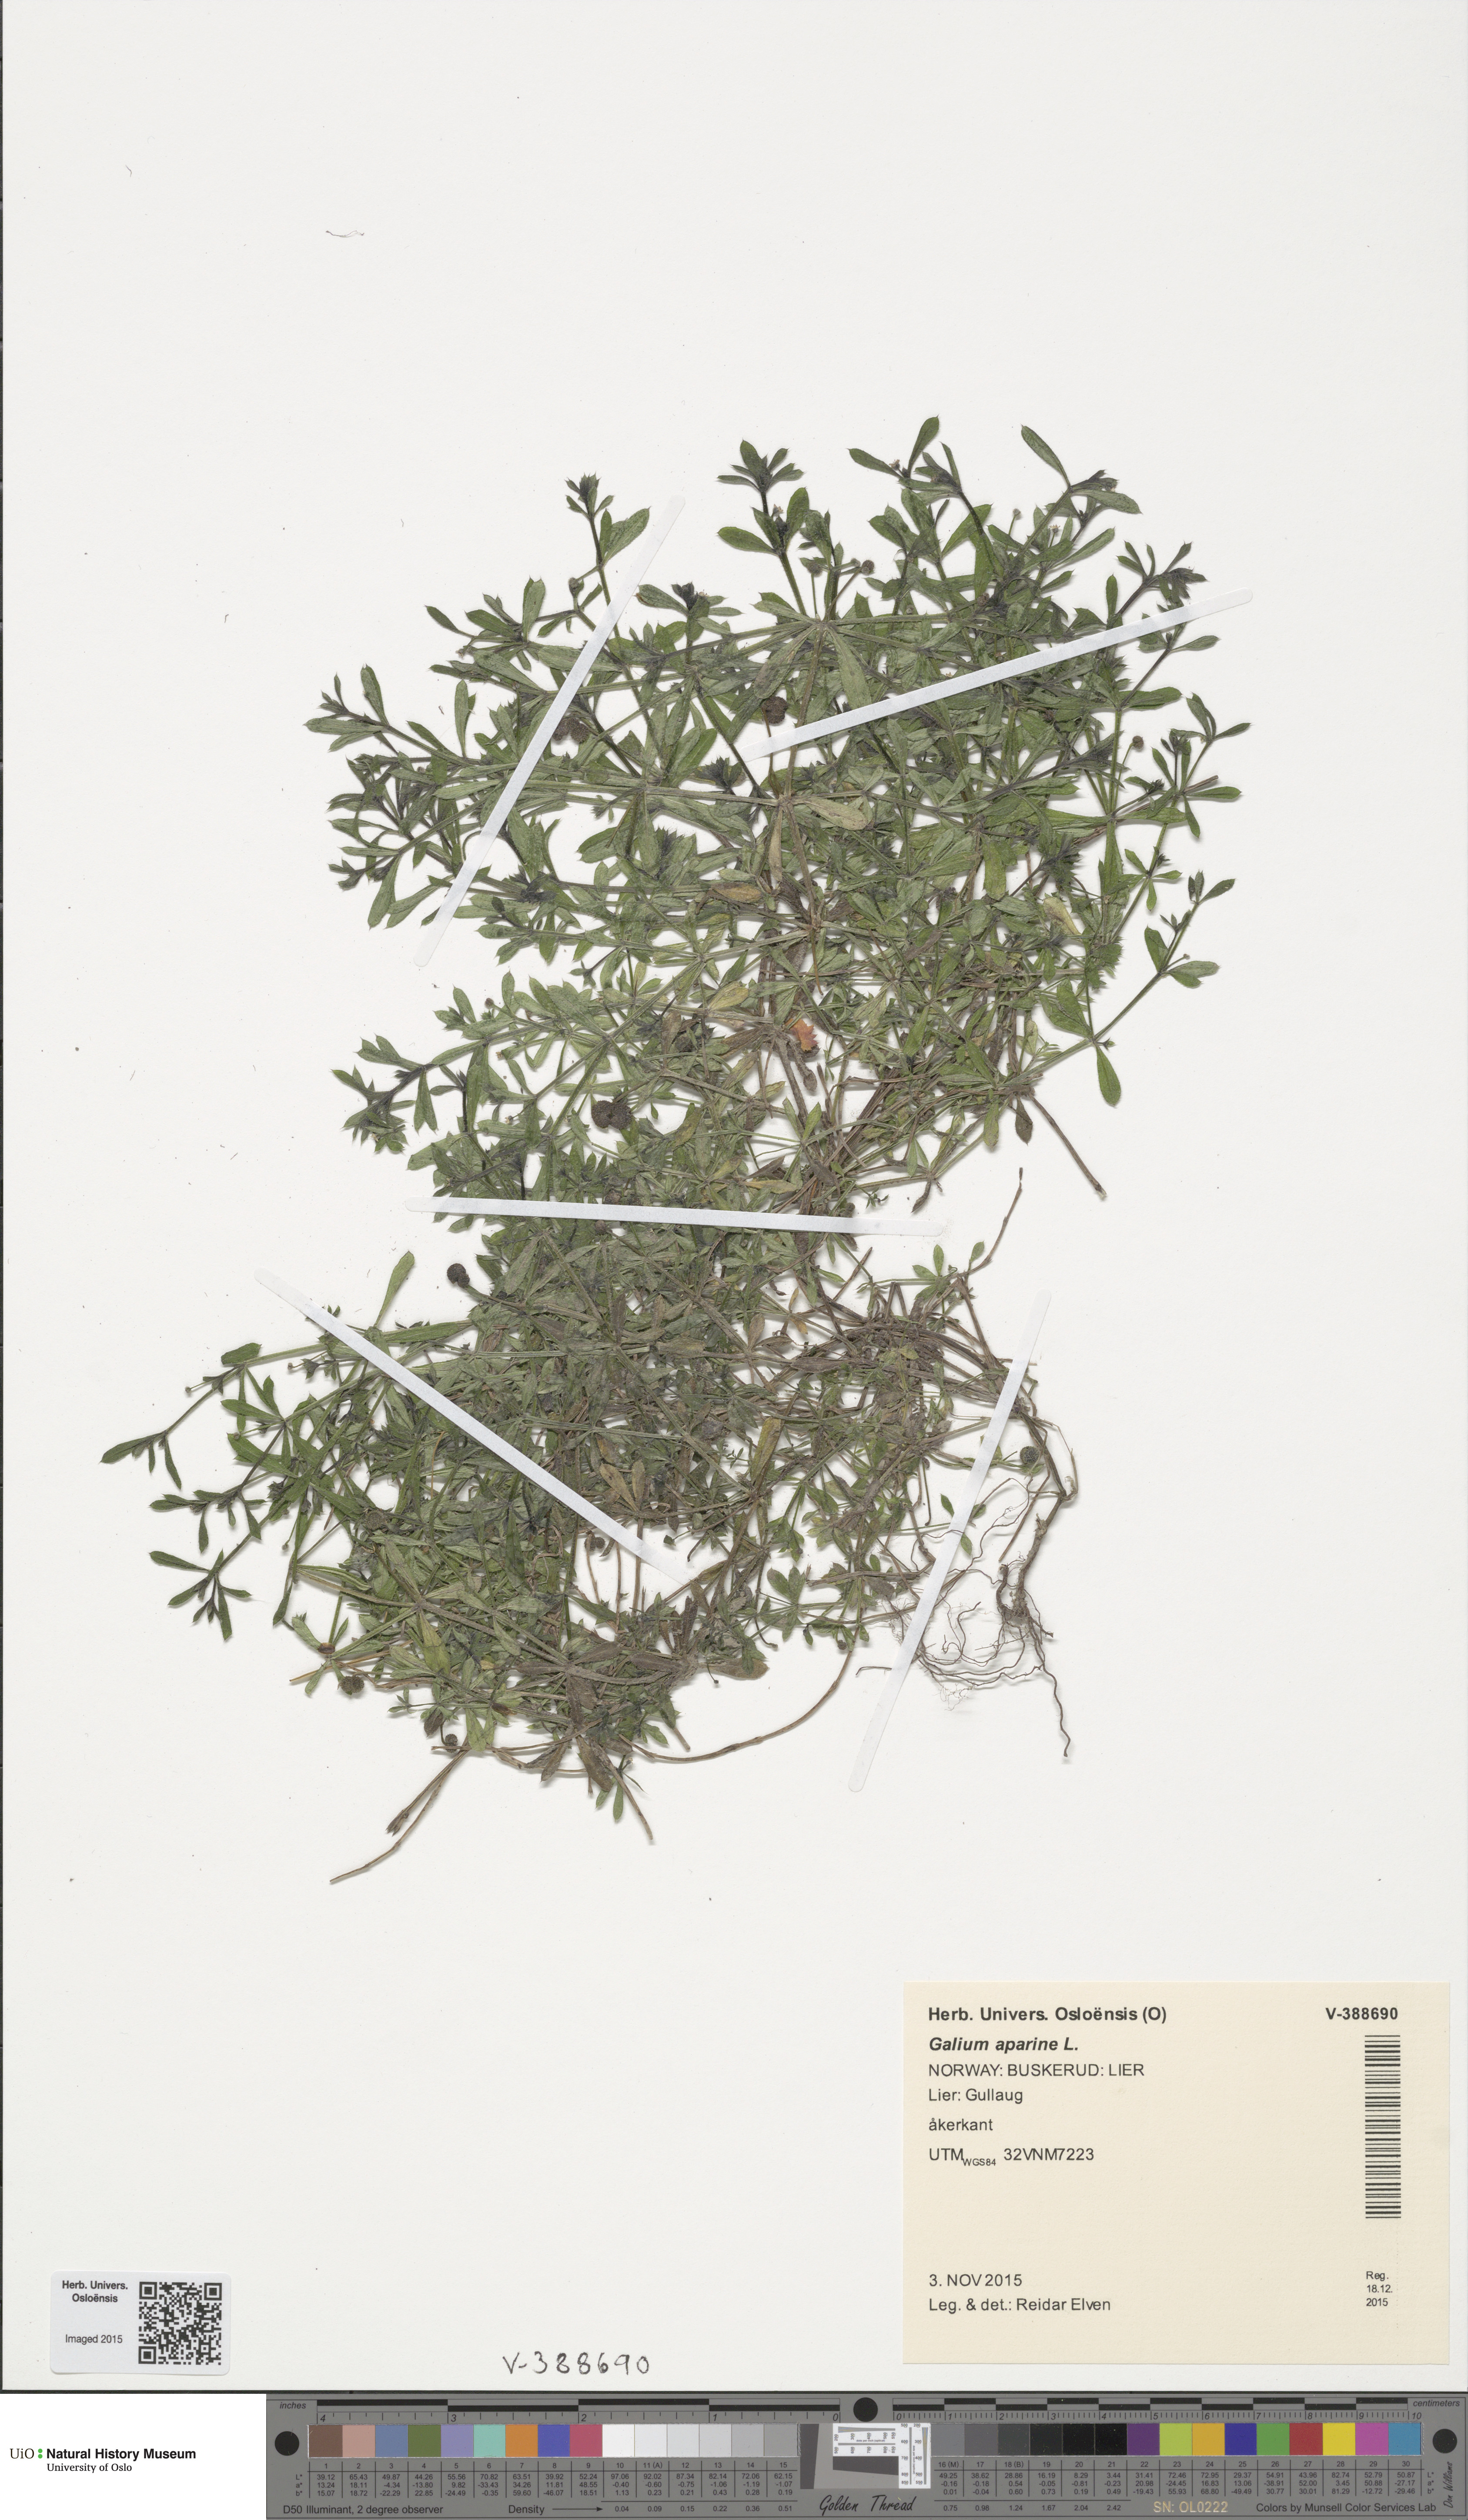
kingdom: Plantae
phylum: Tracheophyta
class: Magnoliopsida
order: Gentianales
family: Rubiaceae
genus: Galium
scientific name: Galium aparine
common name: Cleavers
